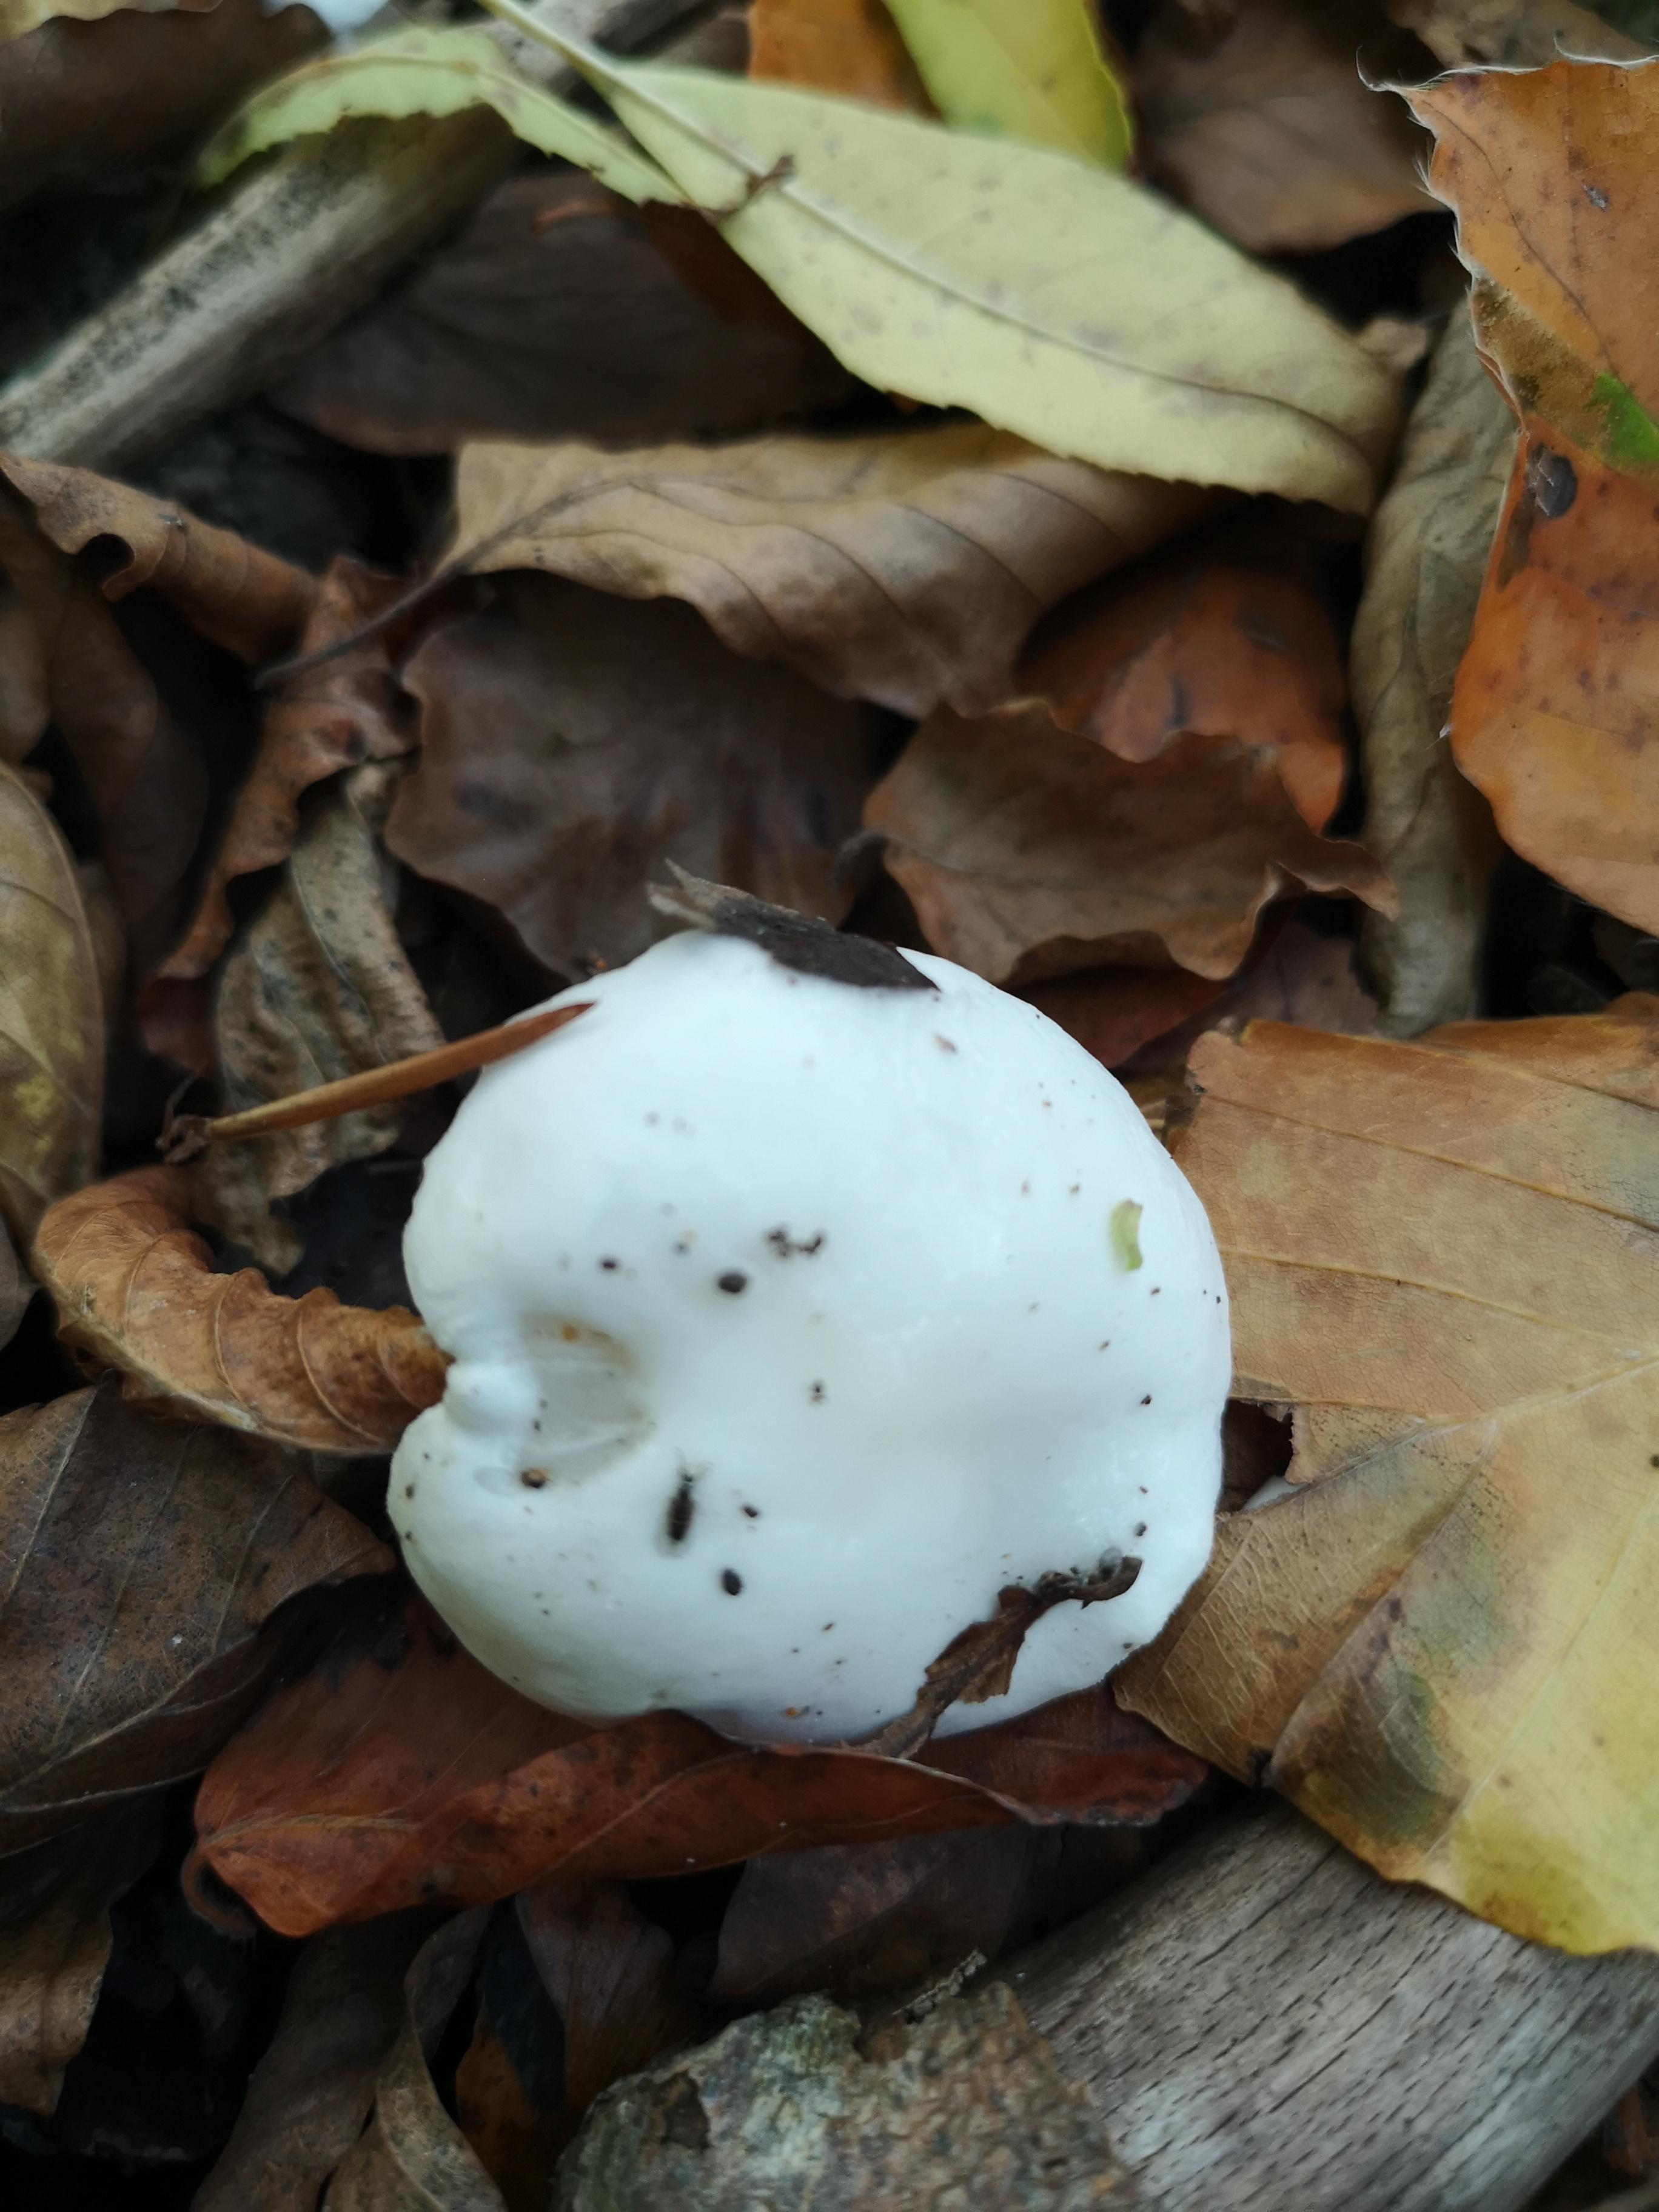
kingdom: Fungi
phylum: Basidiomycota
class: Agaricomycetes
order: Agaricales
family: Hygrophoraceae
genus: Hygrophorus
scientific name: Hygrophorus eburneus
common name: elfenbens-sneglehat
